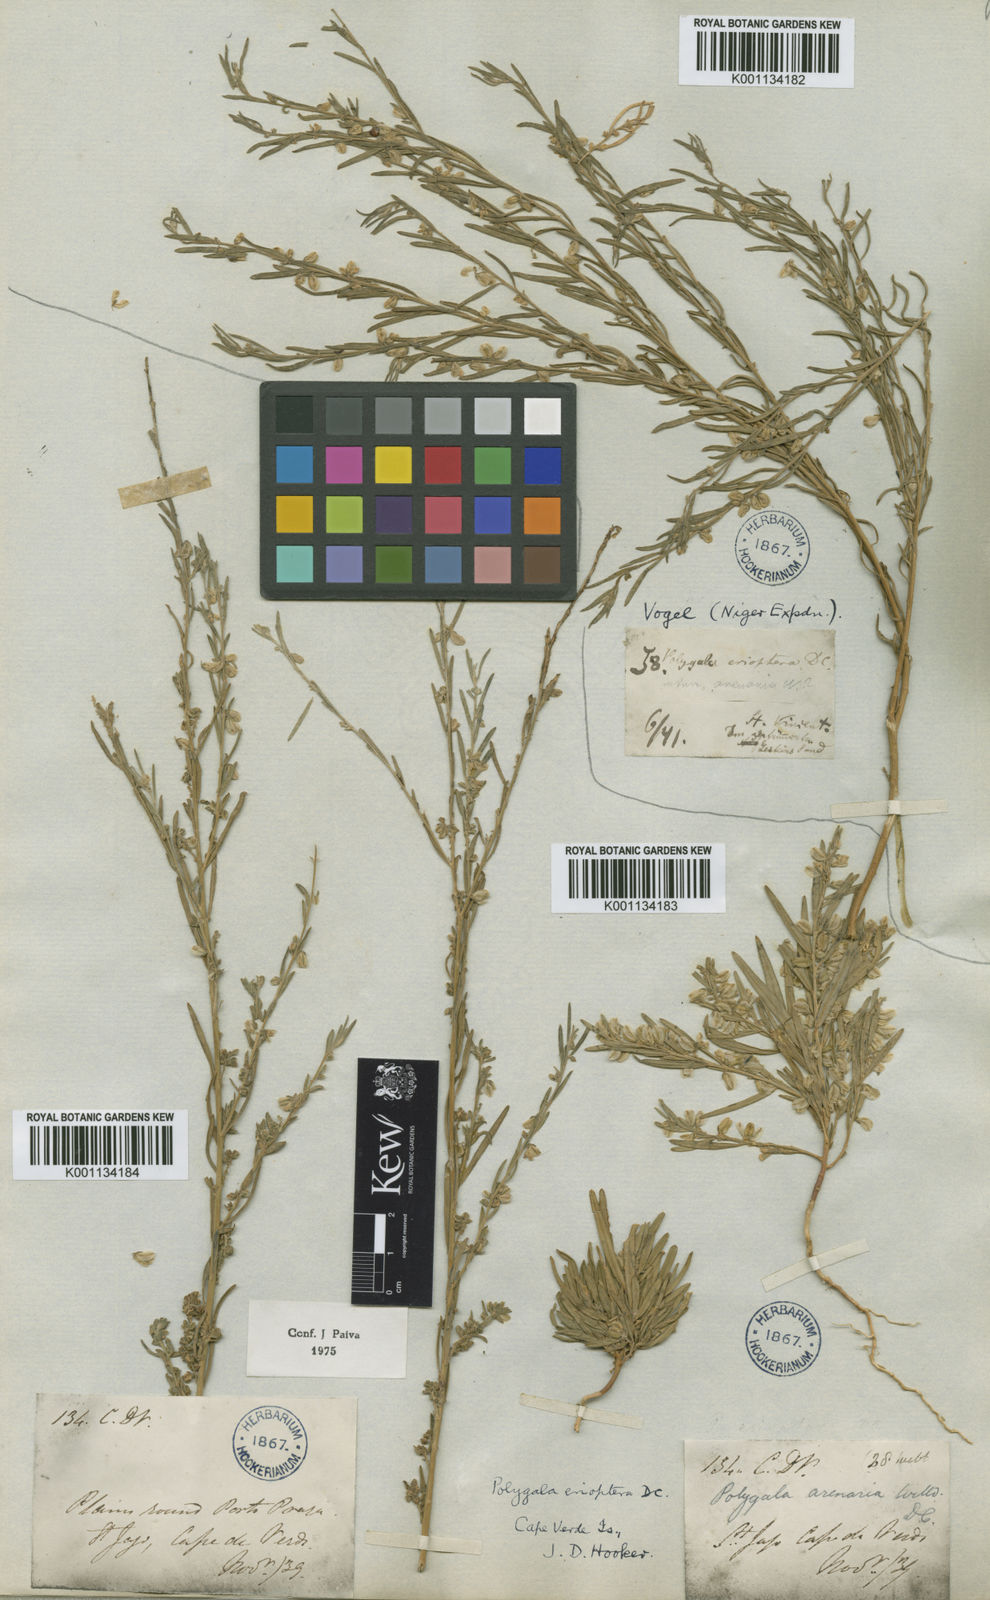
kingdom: Plantae
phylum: Tracheophyta
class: Magnoliopsida
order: Fabales
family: Polygalaceae
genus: Polygala
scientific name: Polygala erioptera
